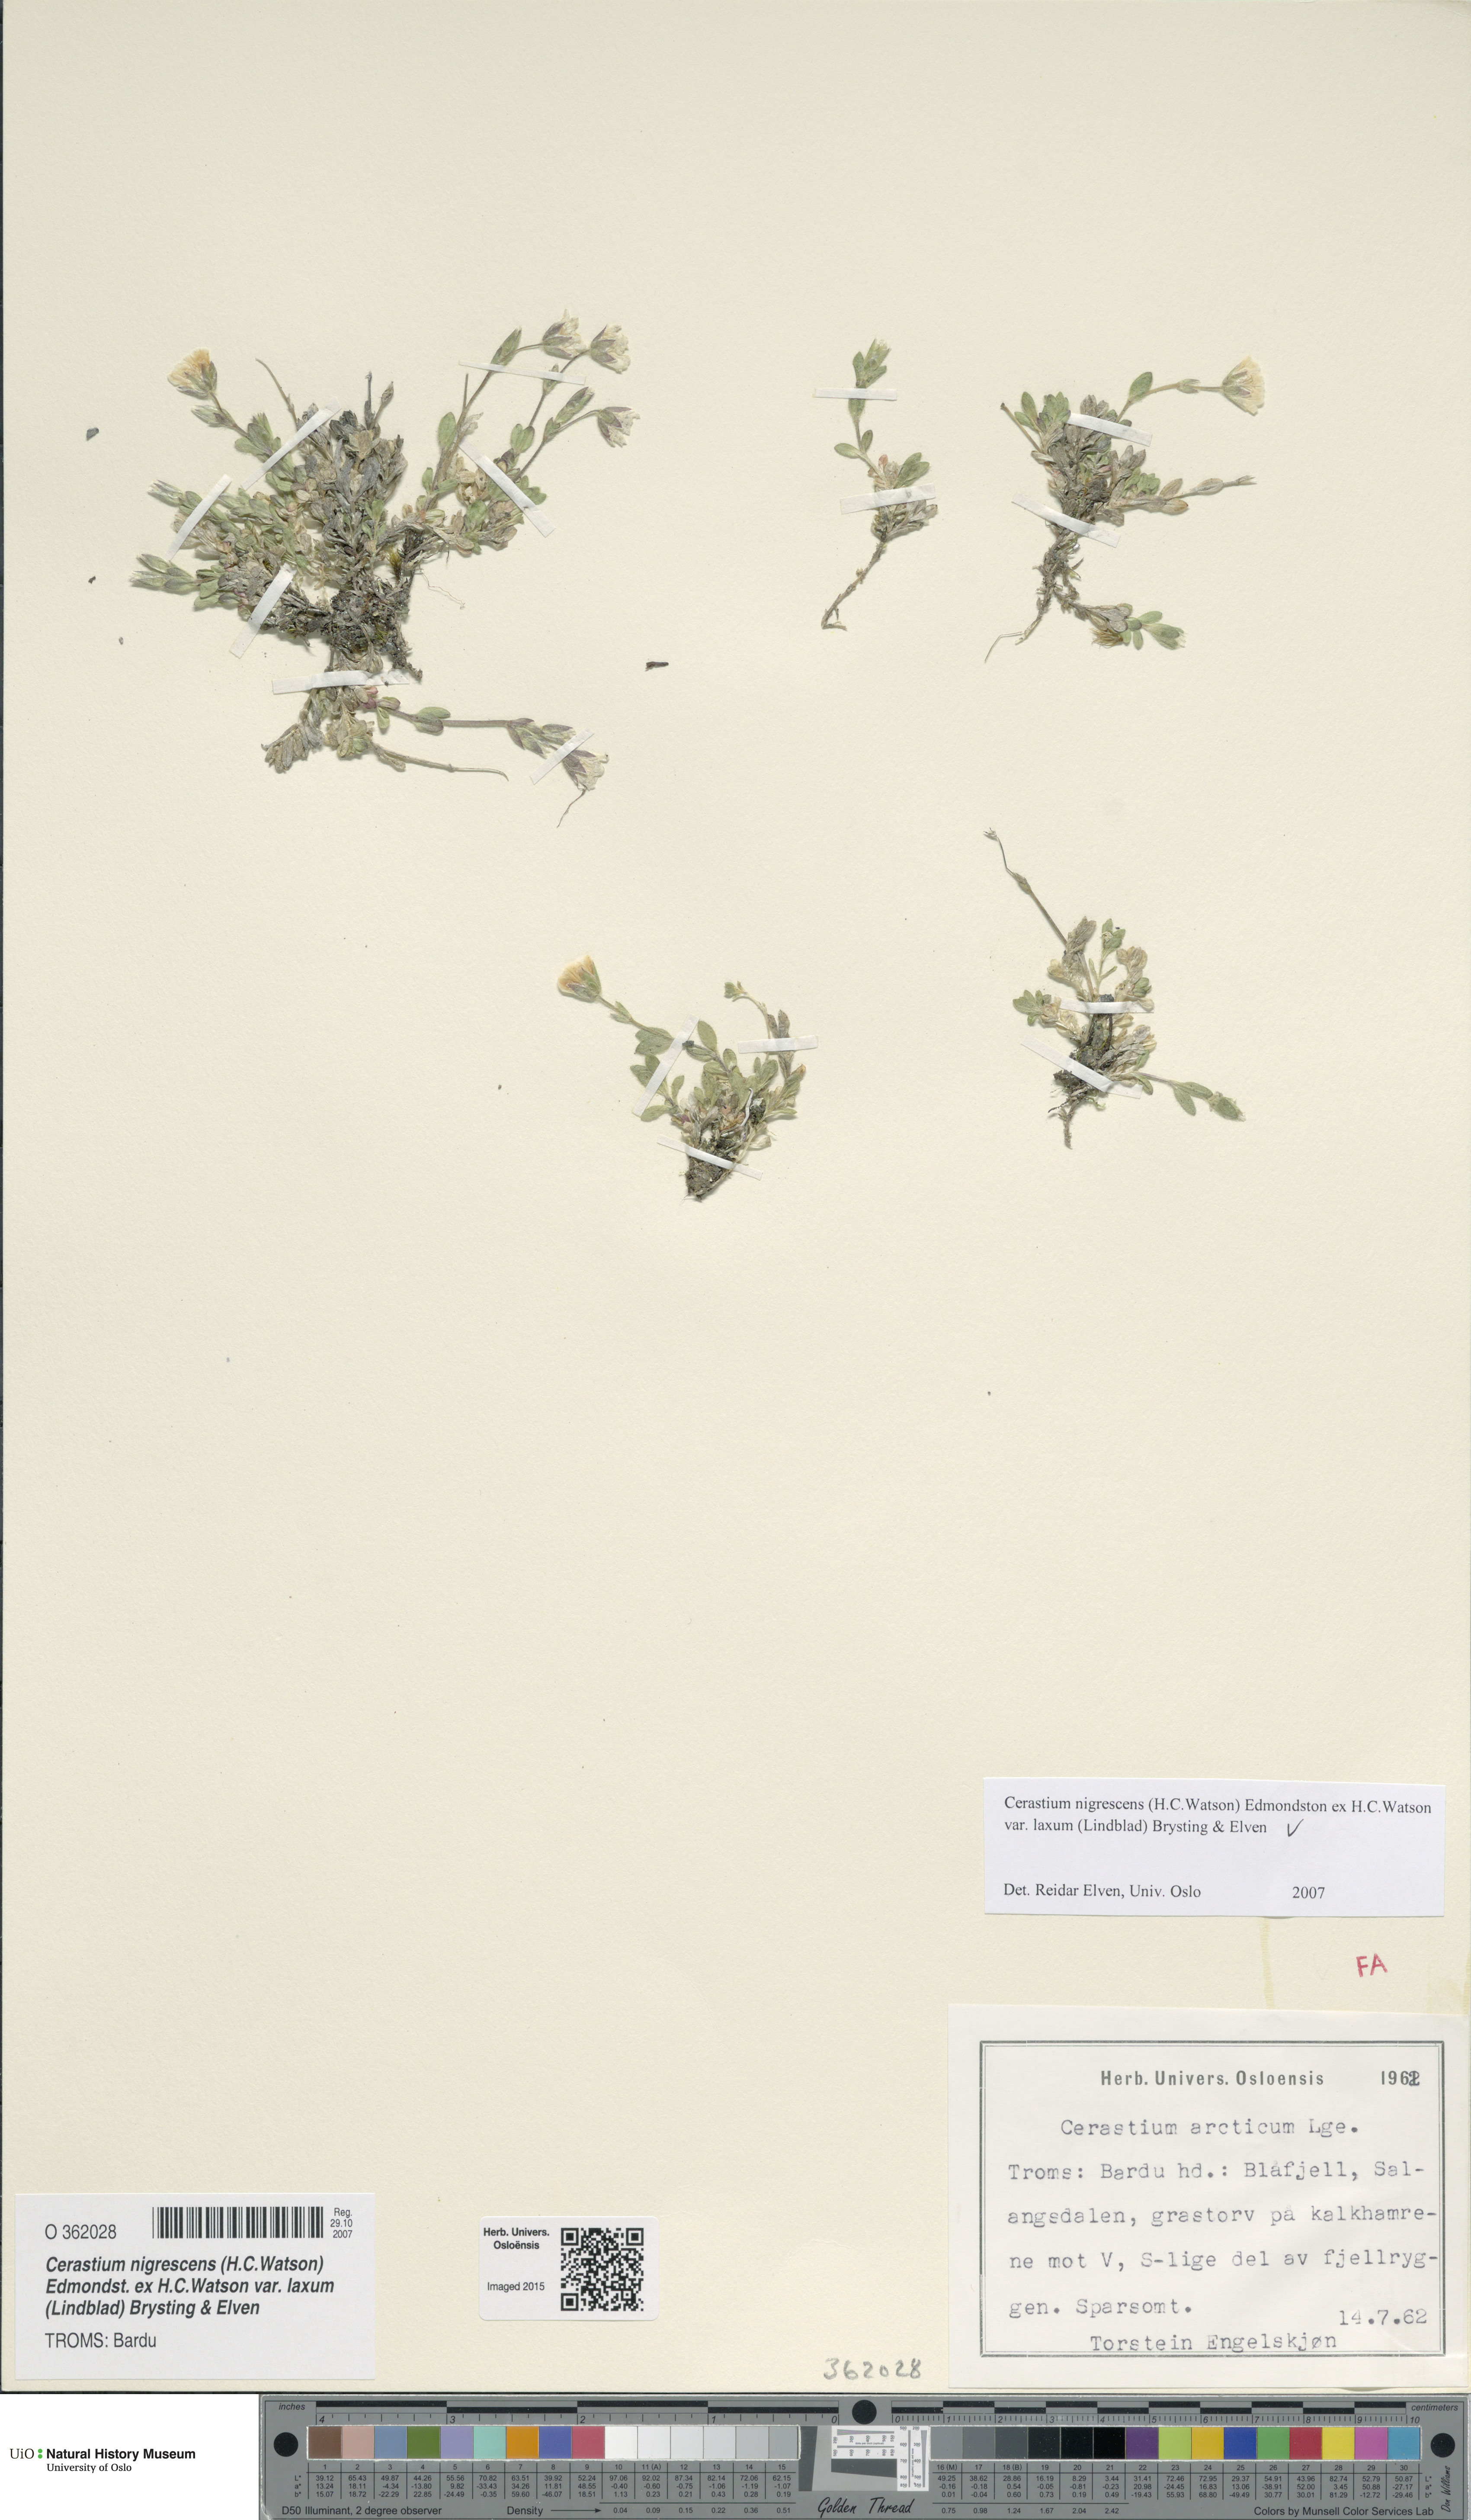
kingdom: Plantae
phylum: Tracheophyta
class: Magnoliopsida
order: Caryophyllales
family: Caryophyllaceae
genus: Cerastium
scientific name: Cerastium nigrescens
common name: Shetland mouse-ear
